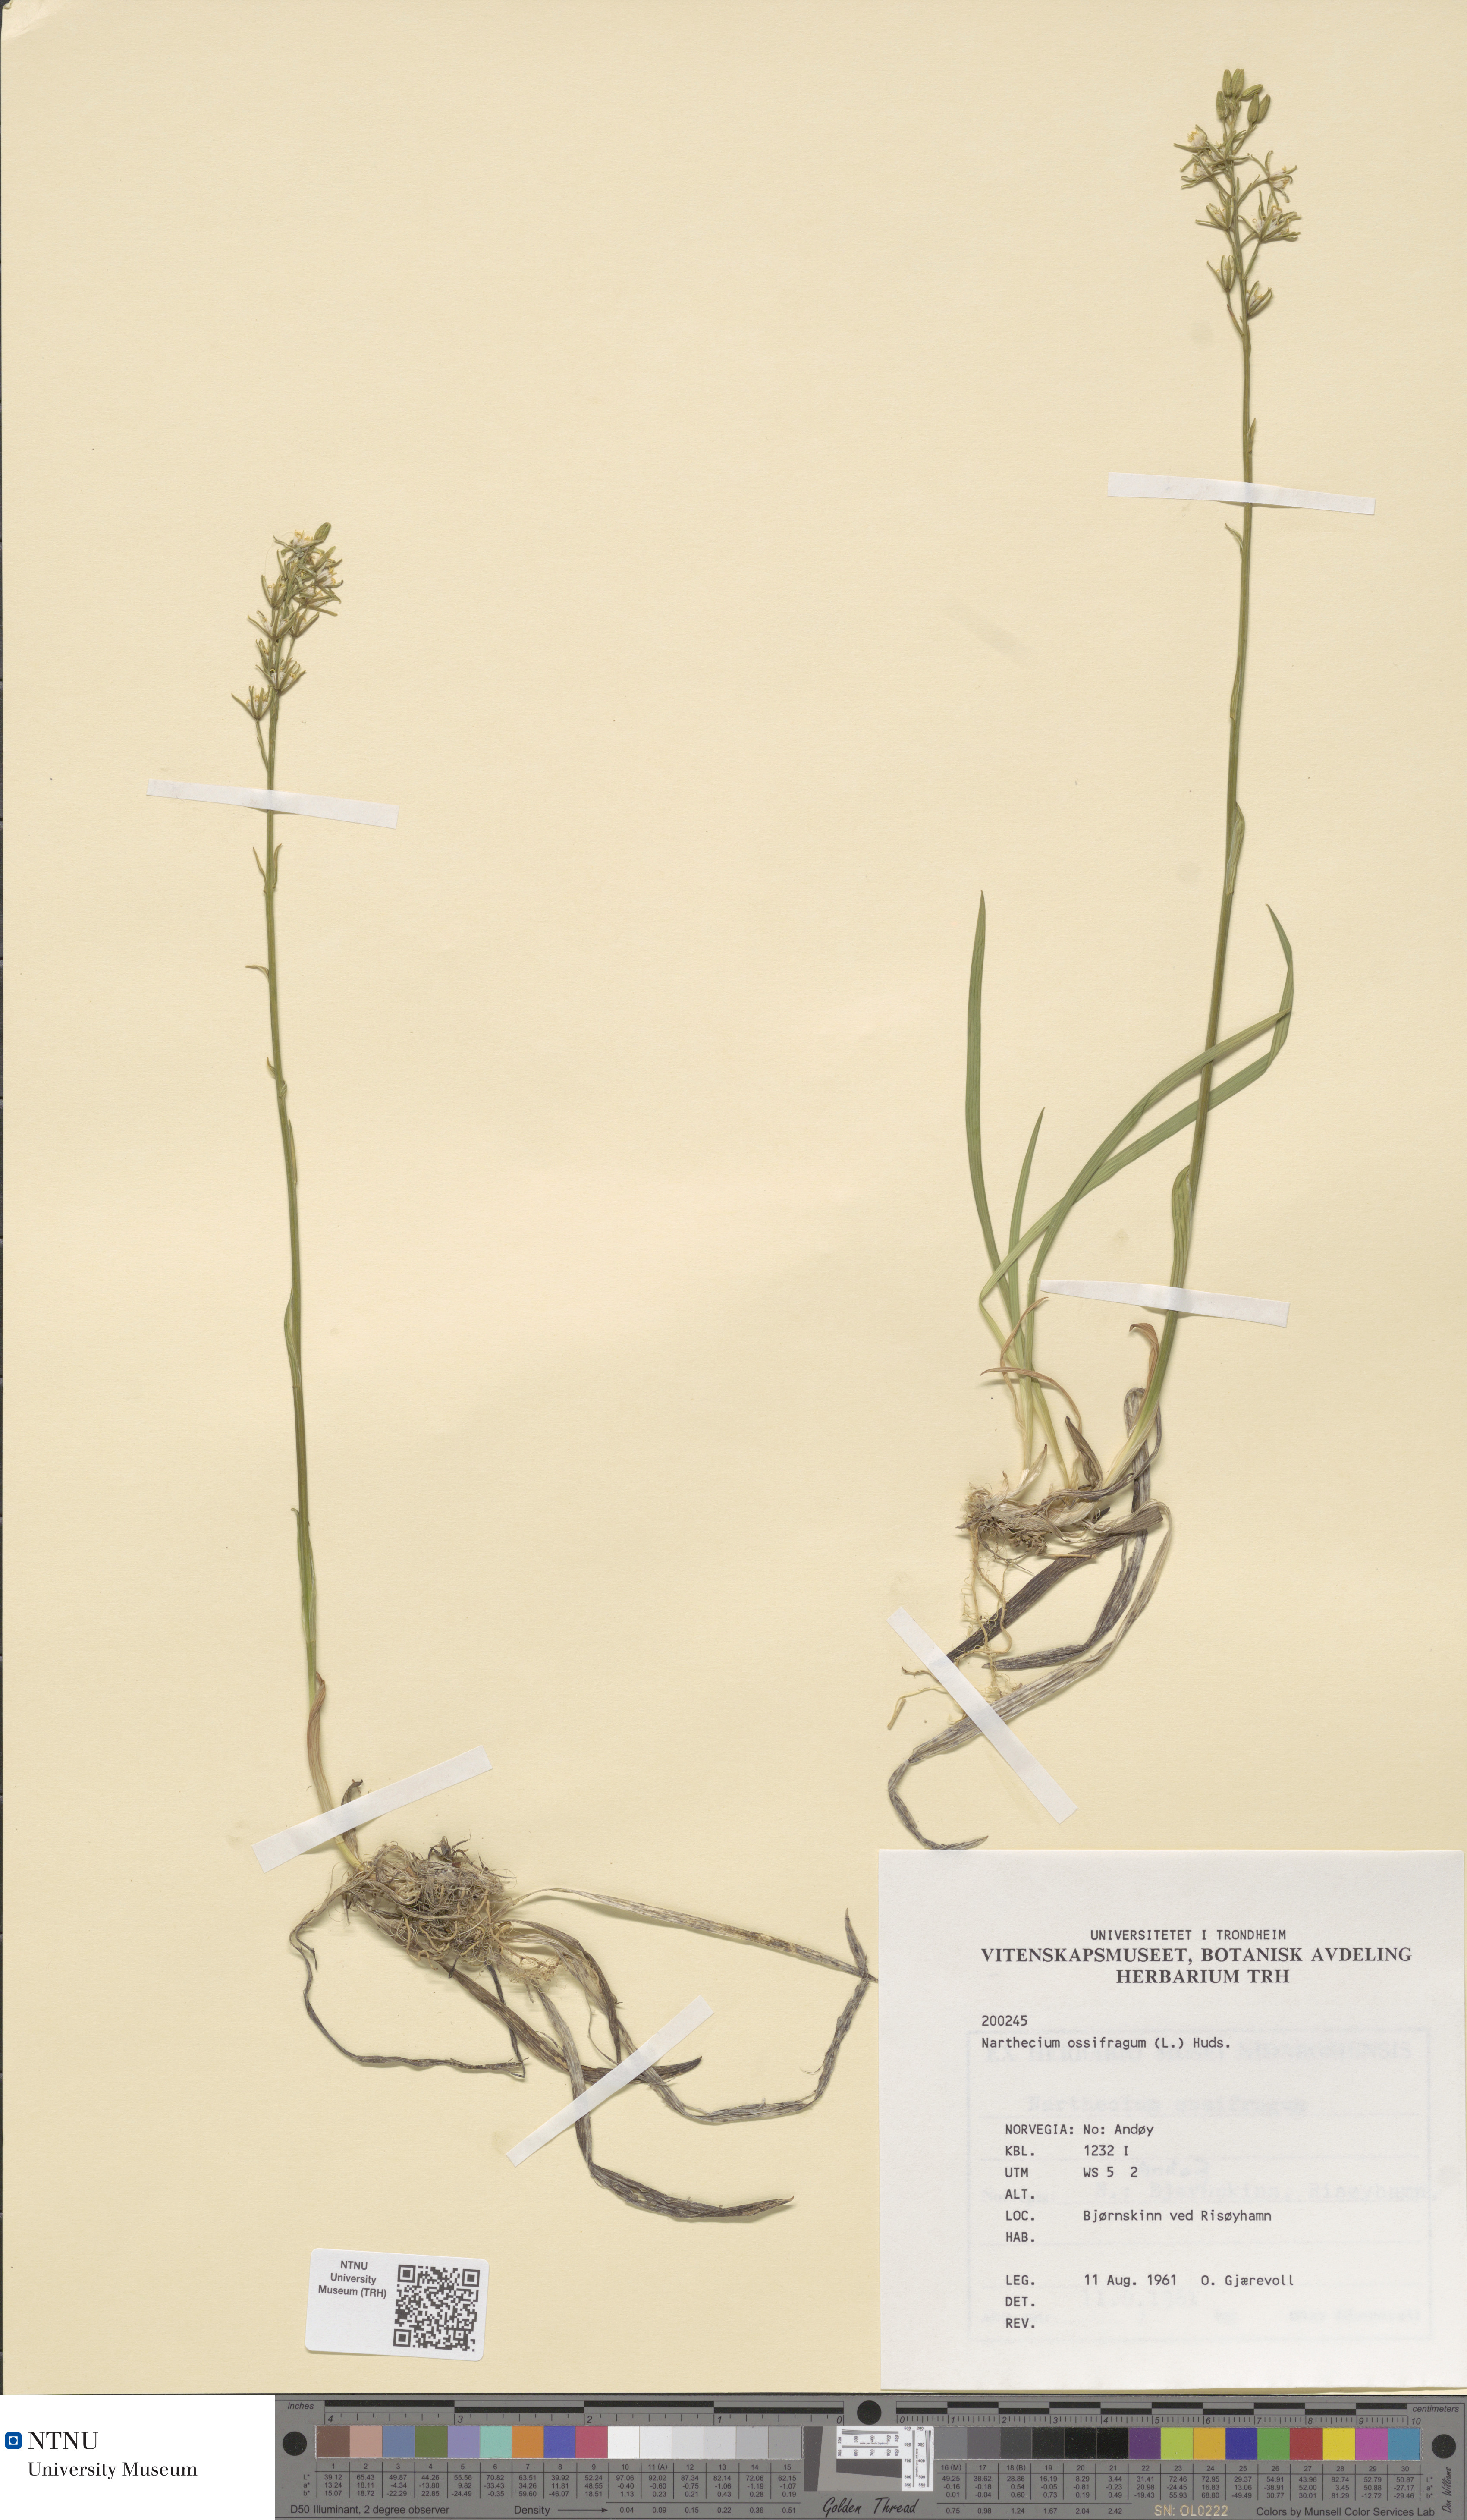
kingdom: Plantae
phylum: Tracheophyta
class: Liliopsida
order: Dioscoreales
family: Nartheciaceae
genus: Narthecium
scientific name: Narthecium ossifragum
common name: Bog asphodel
